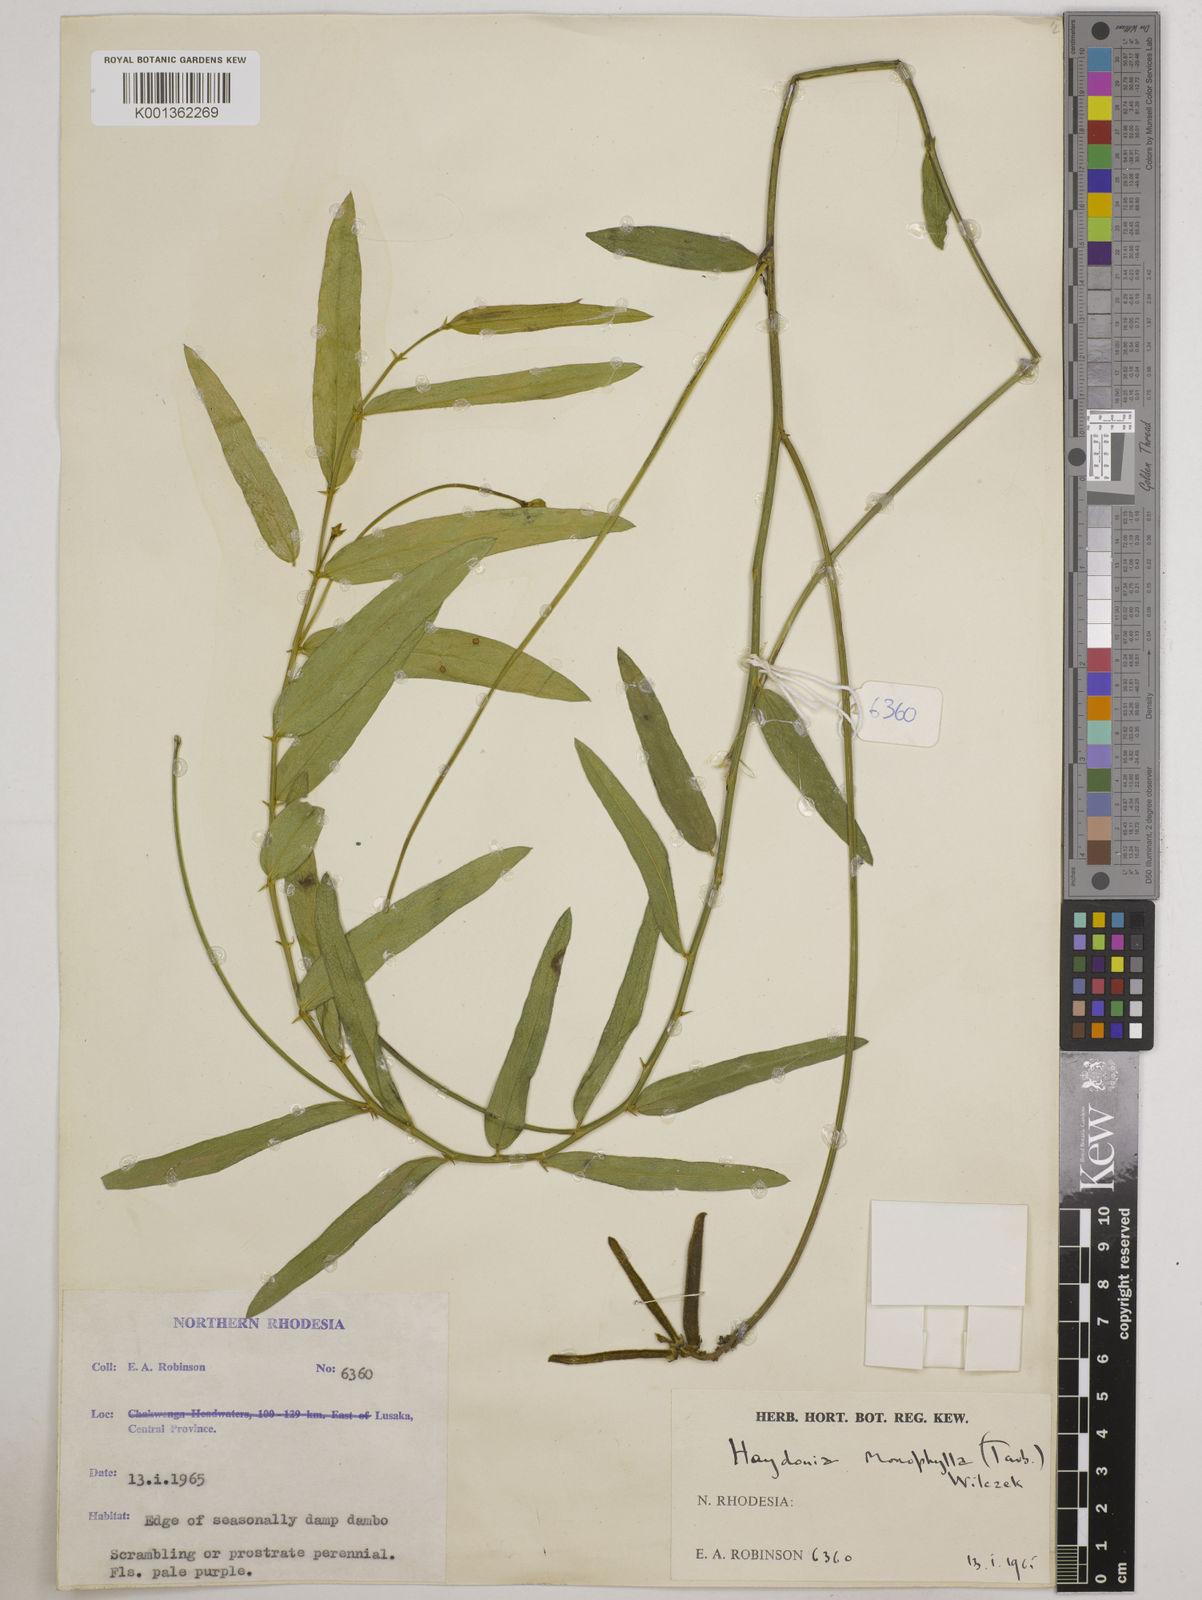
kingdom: Plantae
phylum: Tracheophyta
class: Magnoliopsida
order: Fabales
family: Fabaceae
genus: Vigna
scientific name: Vigna monophylla
